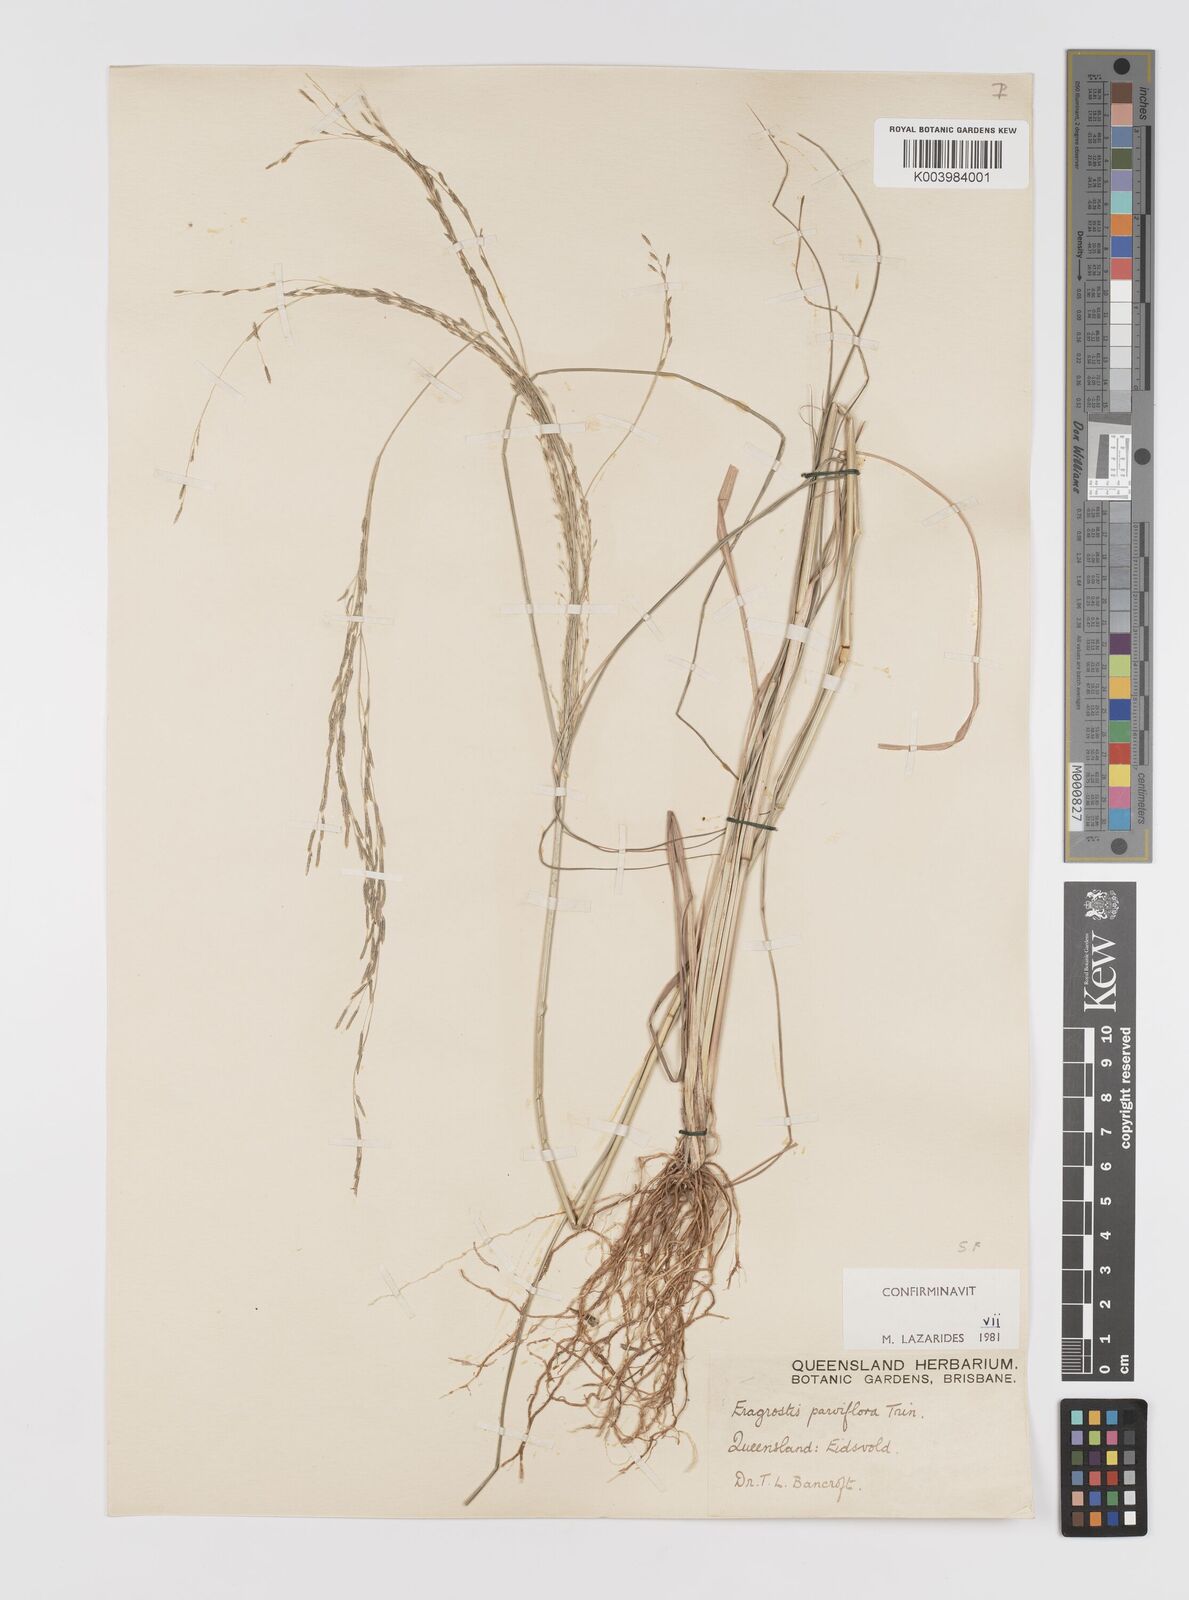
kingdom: Plantae
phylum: Tracheophyta
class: Liliopsida
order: Poales
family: Poaceae
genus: Eragrostis
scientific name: Eragrostis parviflora
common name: Weeping love-grass
